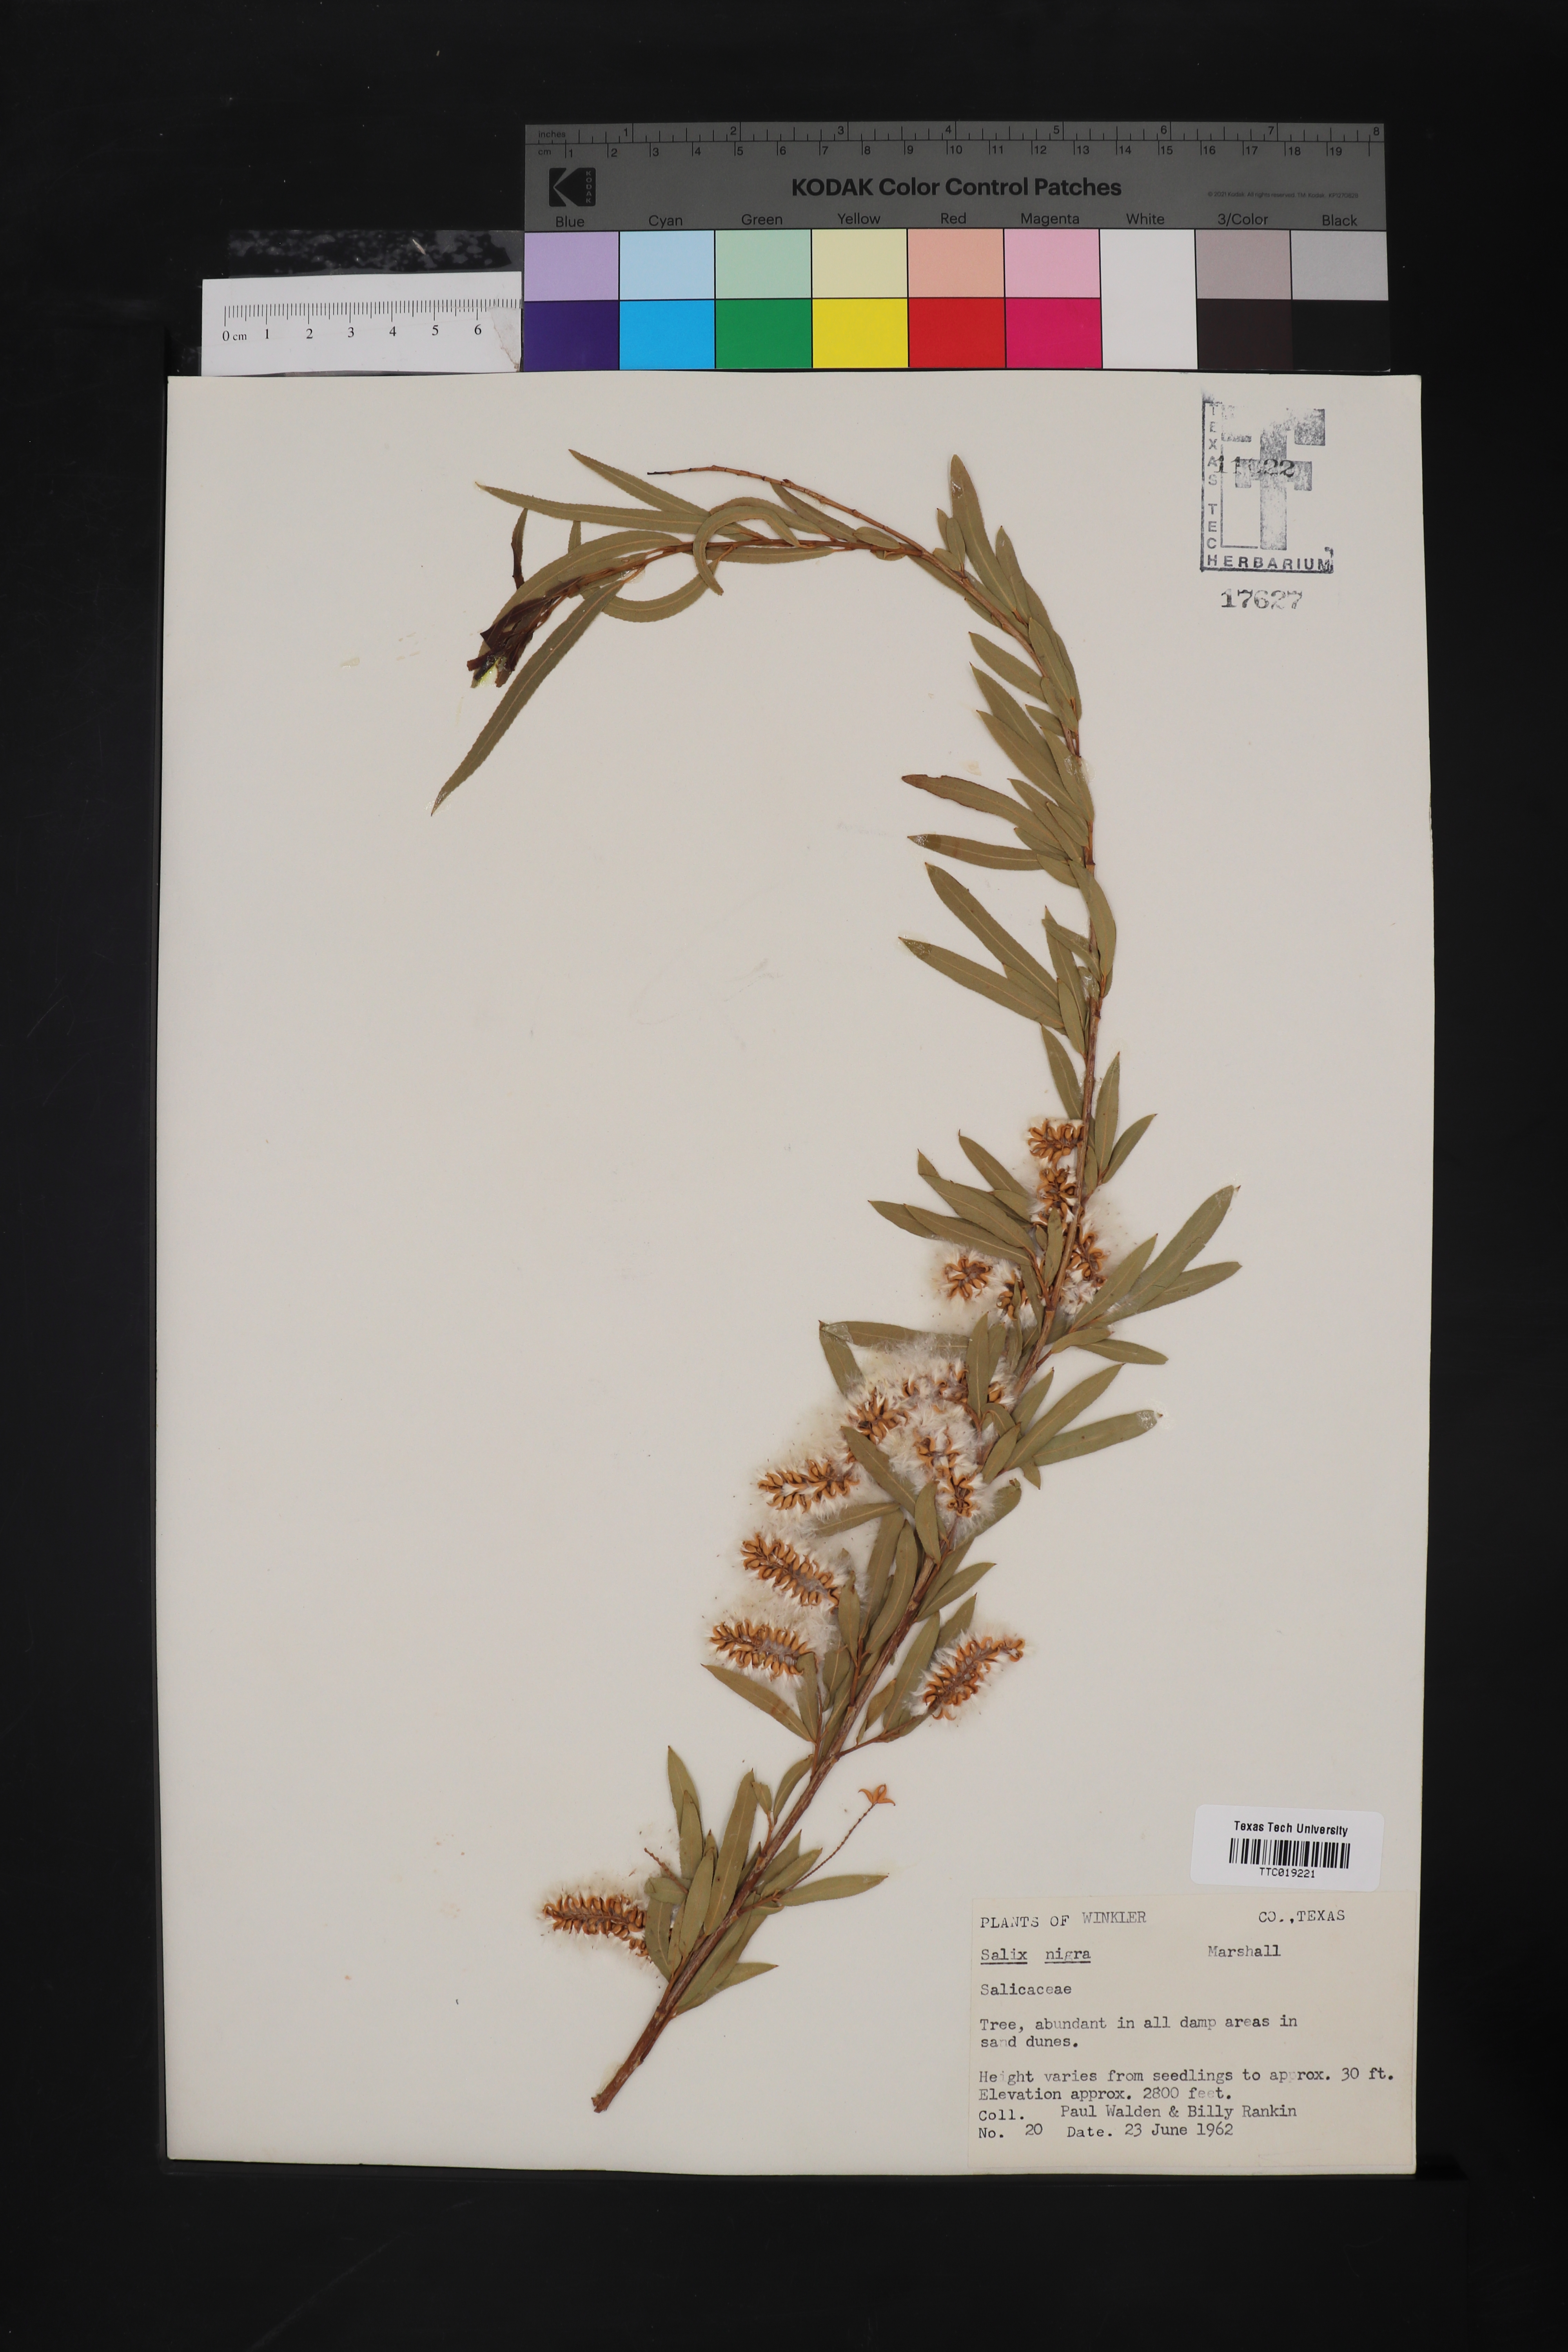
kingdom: Plantae
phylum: Tracheophyta
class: Magnoliopsida
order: Malpighiales
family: Salicaceae
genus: Salix
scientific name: Salix nigra
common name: Black willow
